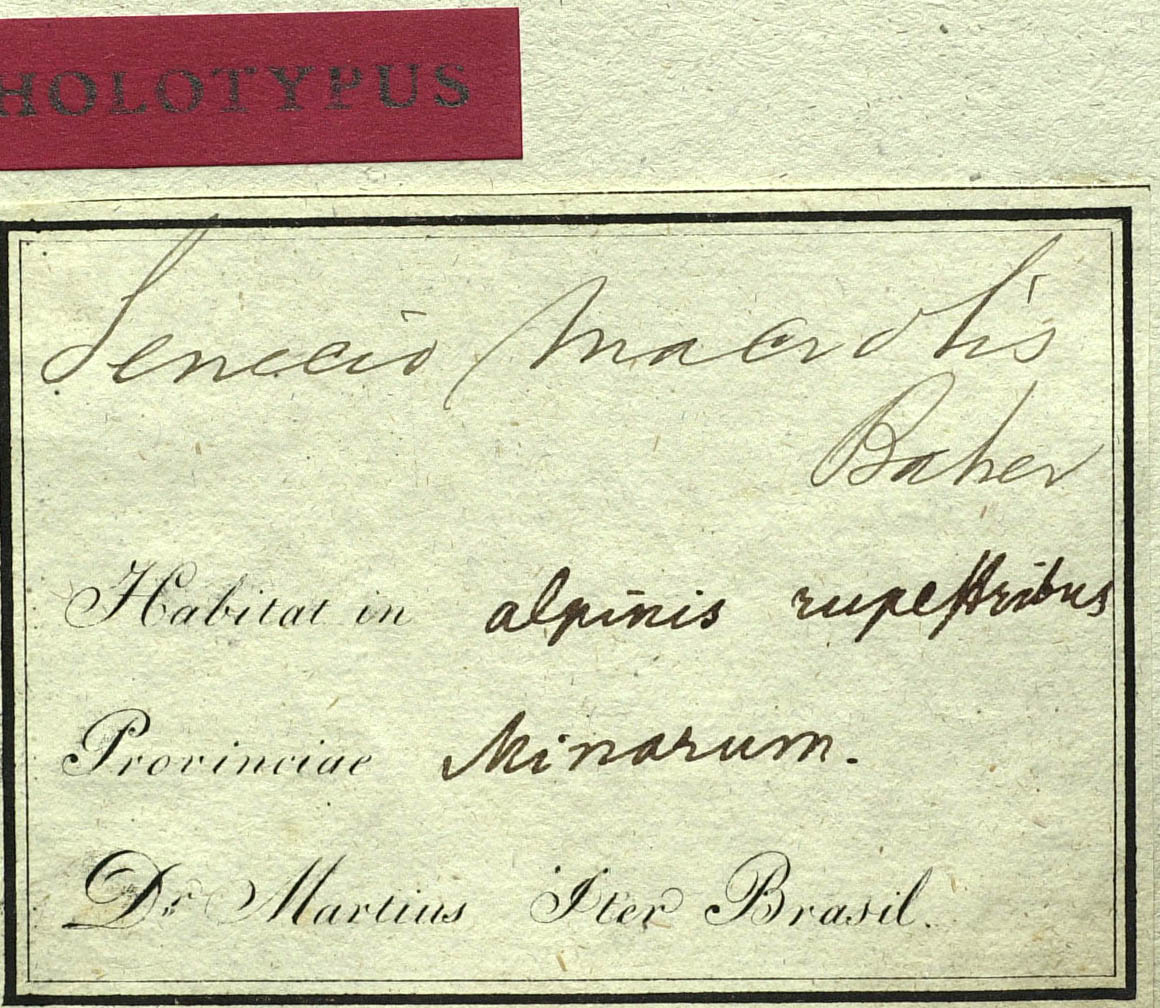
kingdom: Plantae
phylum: Tracheophyta
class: Magnoliopsida
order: Asterales
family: Asteraceae
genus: Senecio
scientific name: Senecio macrotis
